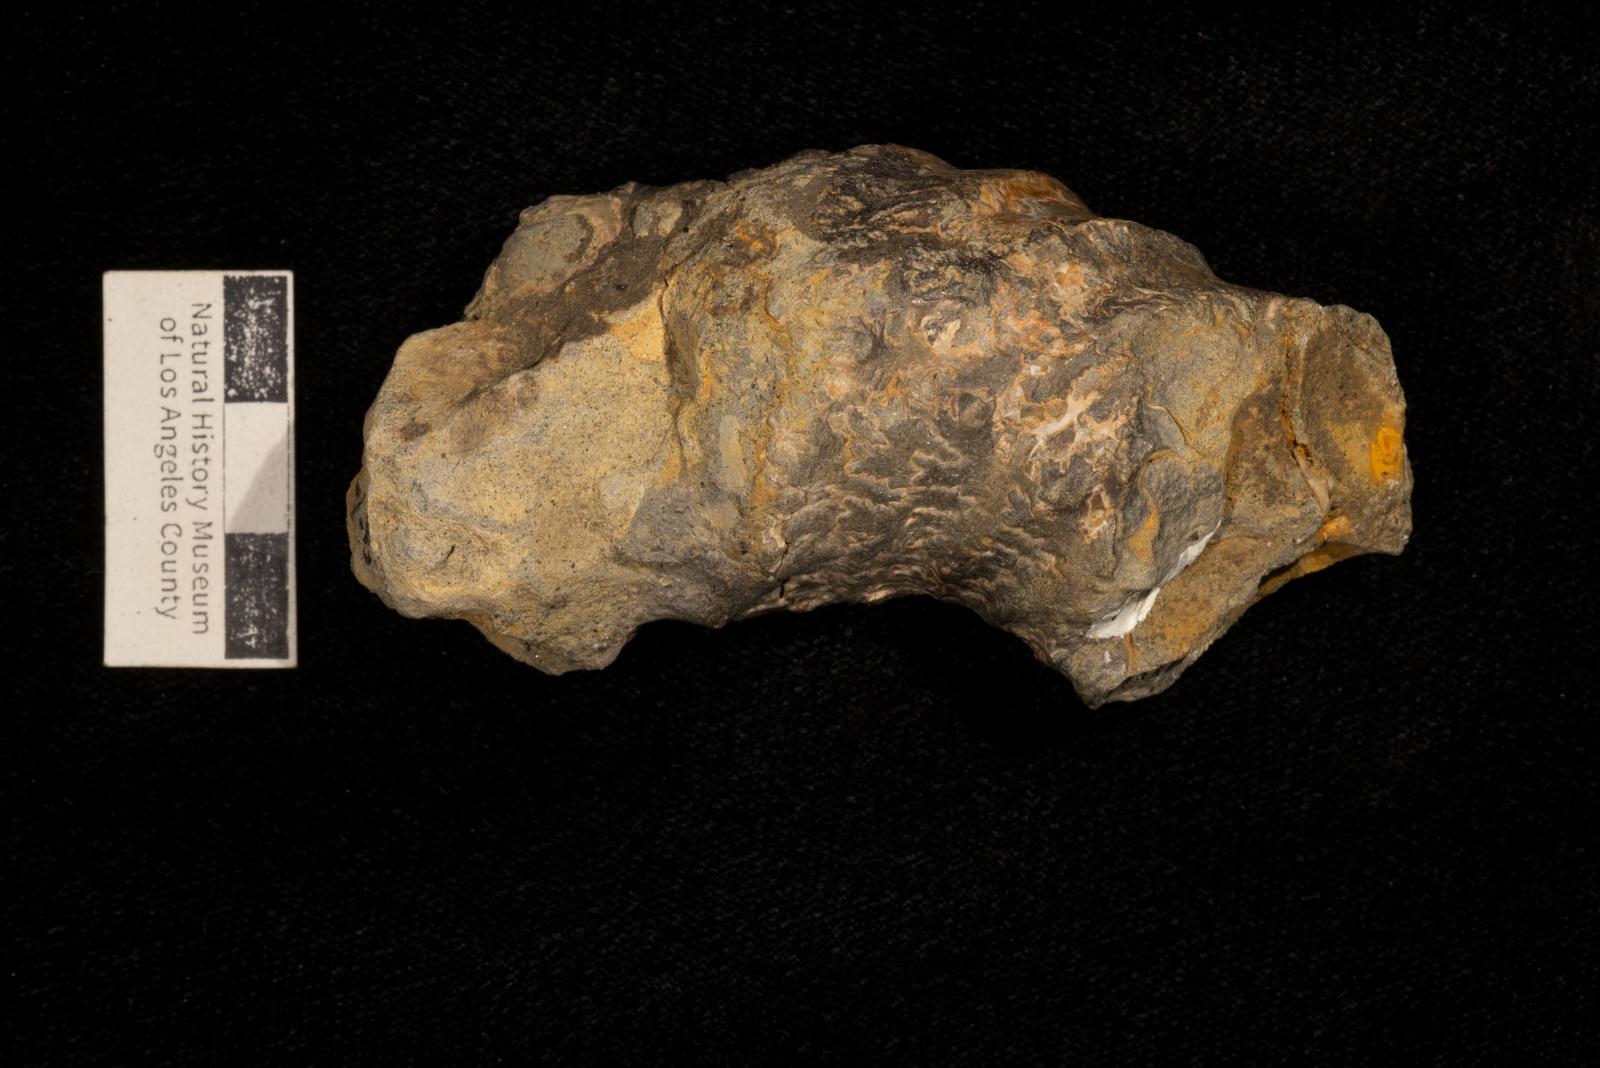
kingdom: Animalia
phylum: Mollusca
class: Cephalopoda
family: Nostoceratidae
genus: Didymoceras
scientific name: Didymoceras draconis
